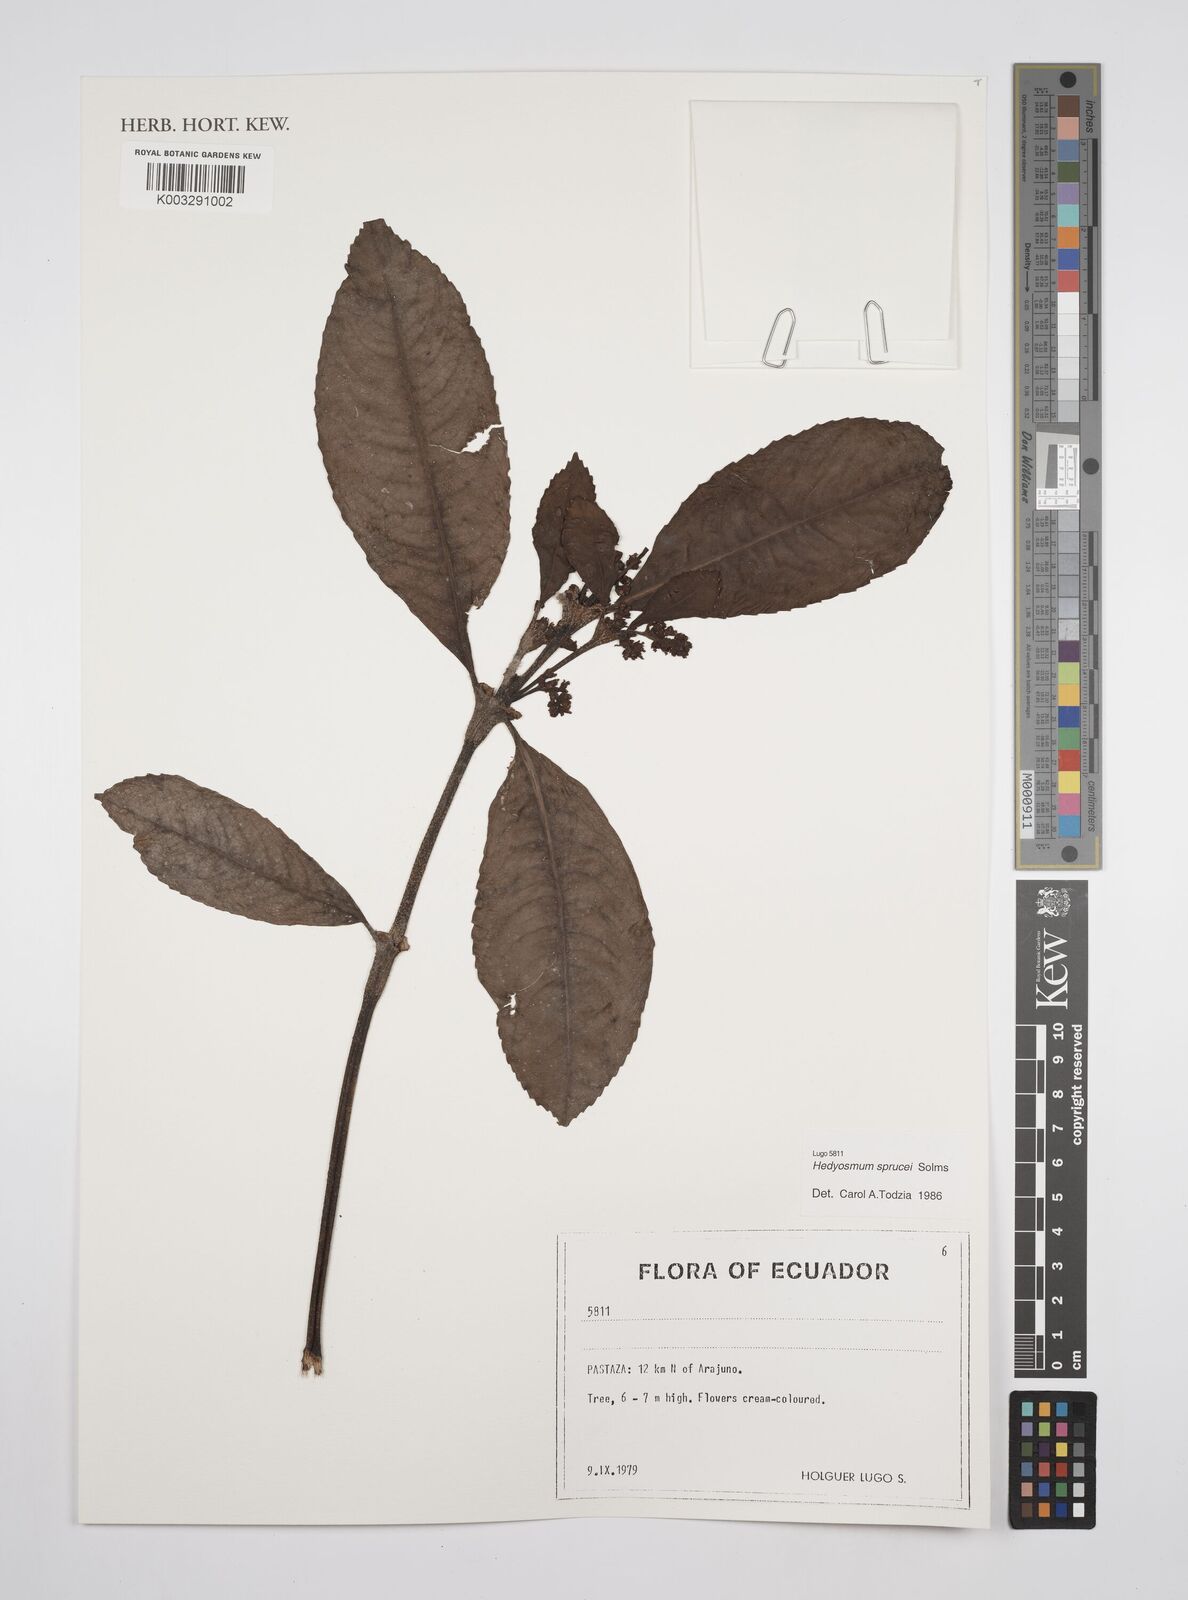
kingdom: Plantae
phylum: Tracheophyta
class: Magnoliopsida
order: Chloranthales
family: Chloranthaceae
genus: Hedyosmum
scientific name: Hedyosmum sprucei
